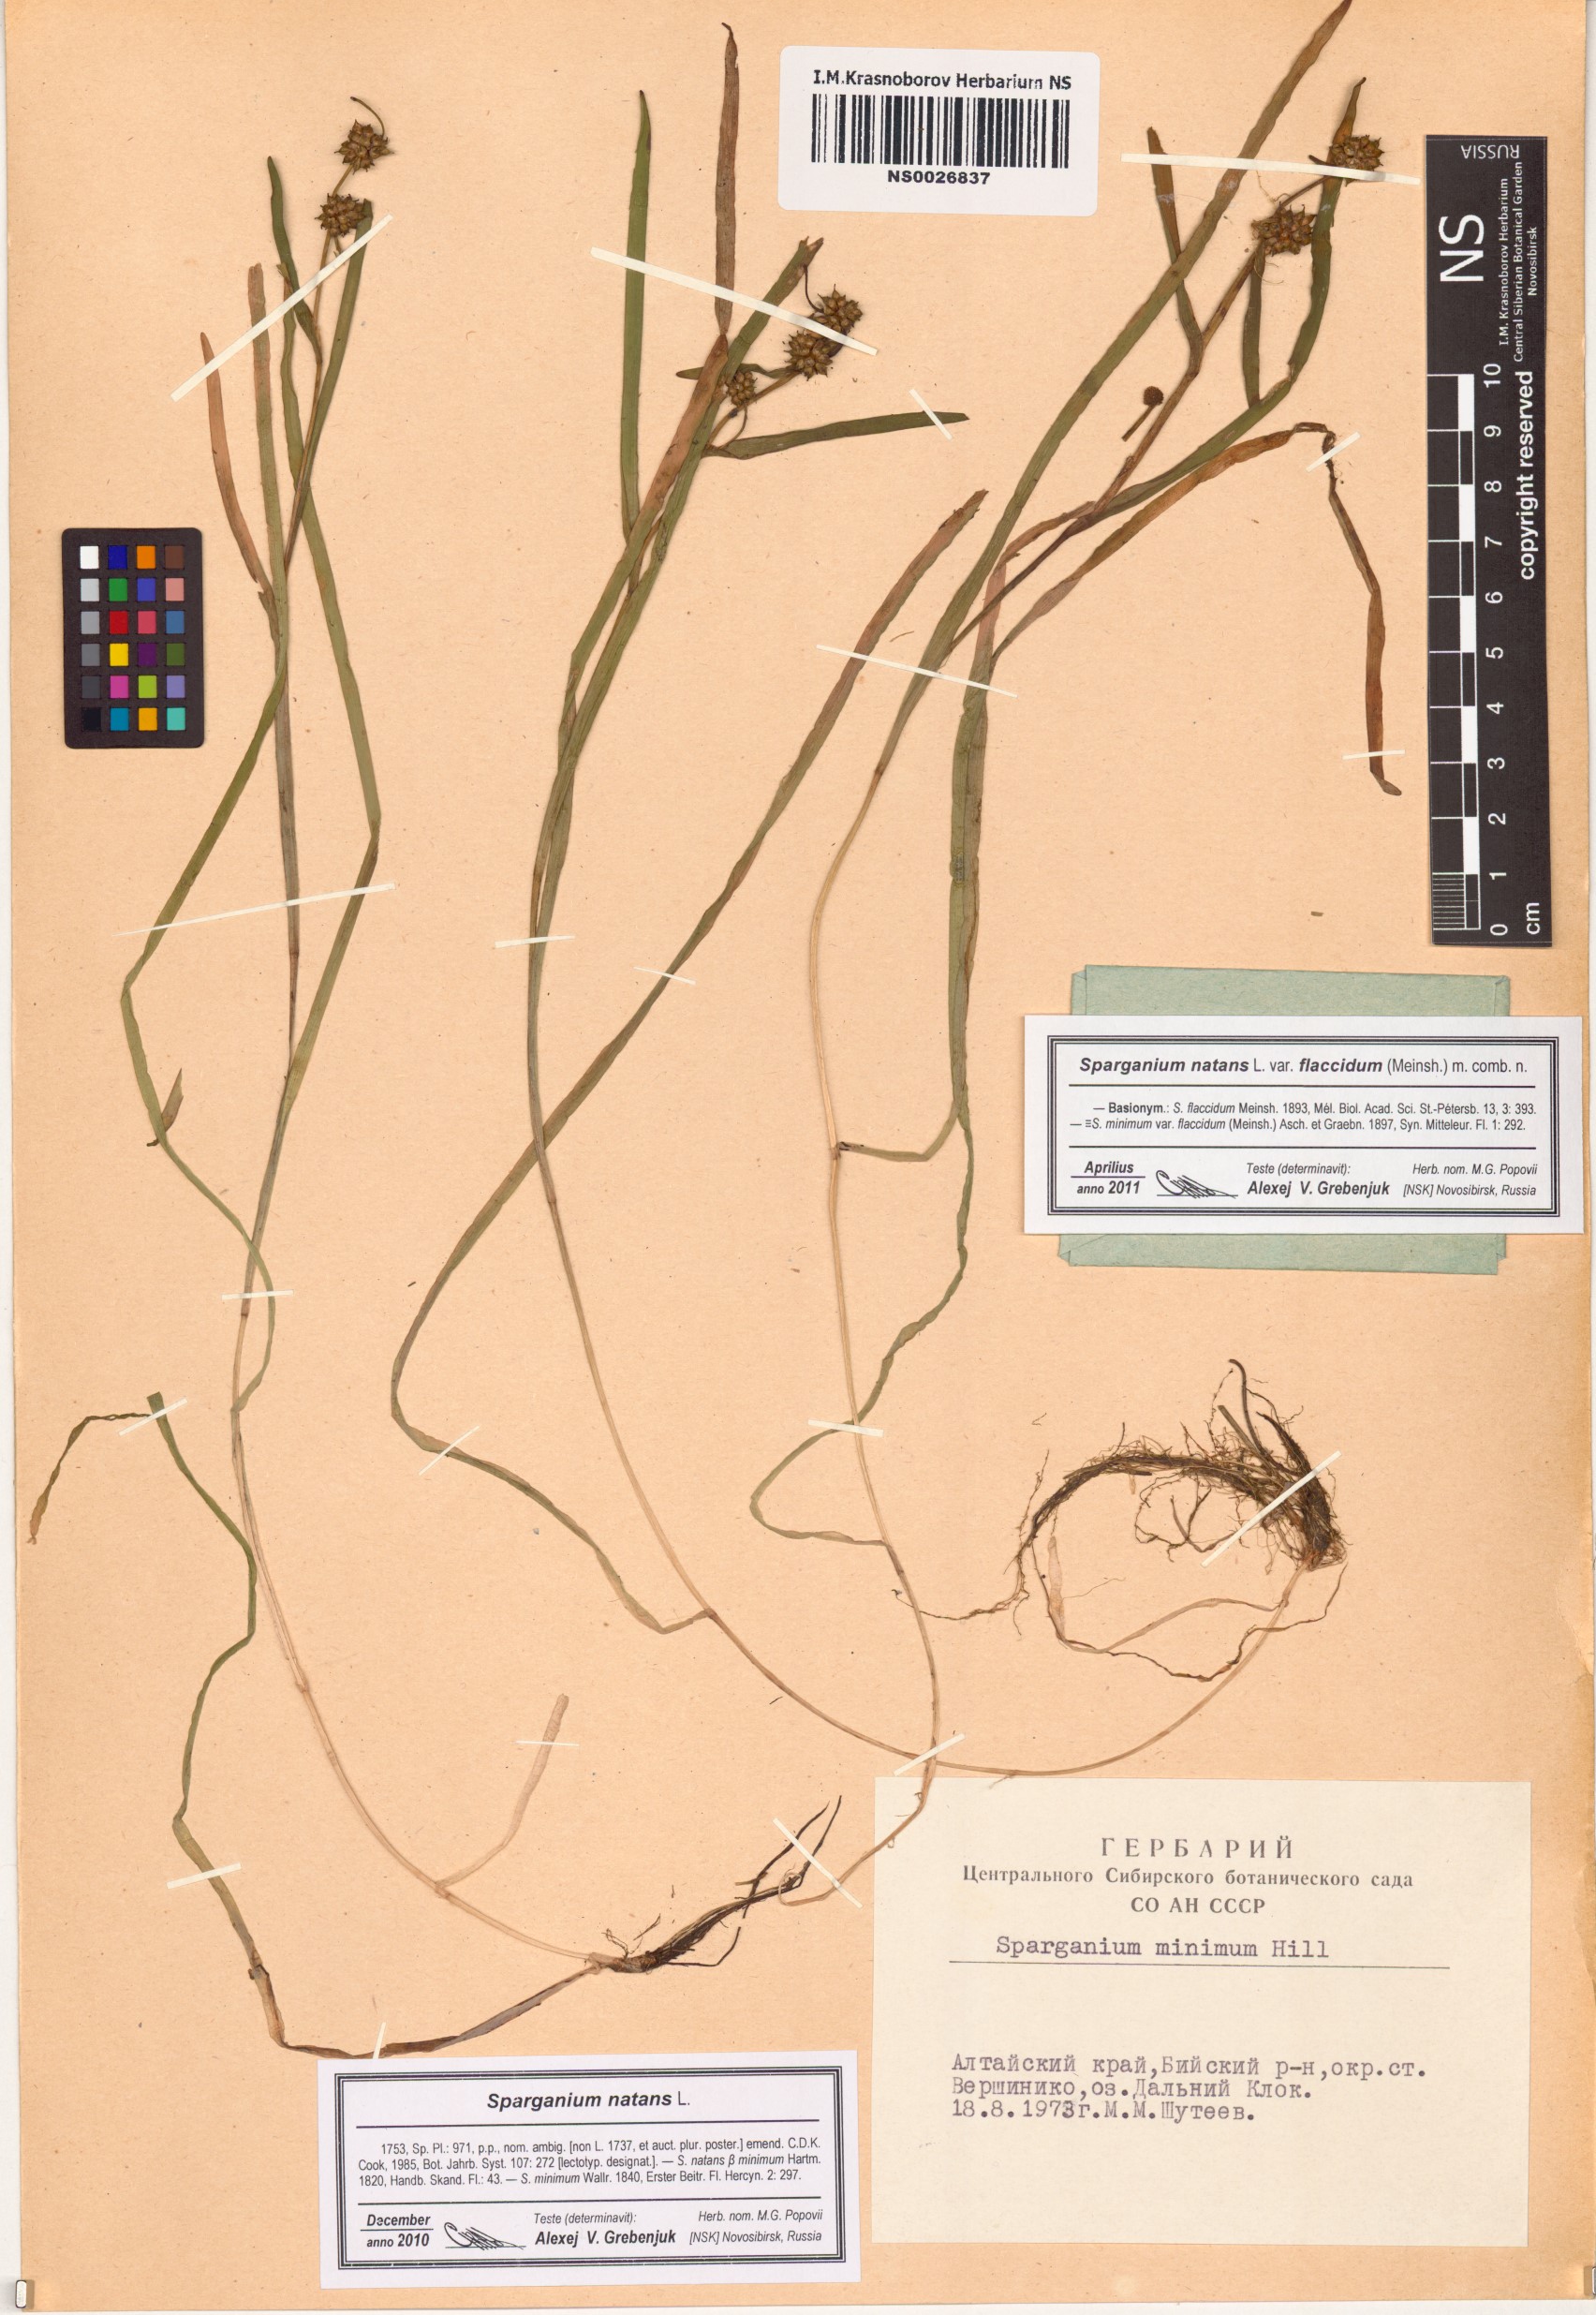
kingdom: Plantae
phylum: Tracheophyta
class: Liliopsida
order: Poales
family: Typhaceae
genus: Sparganium
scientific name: Sparganium natans
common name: Least bur-reed
